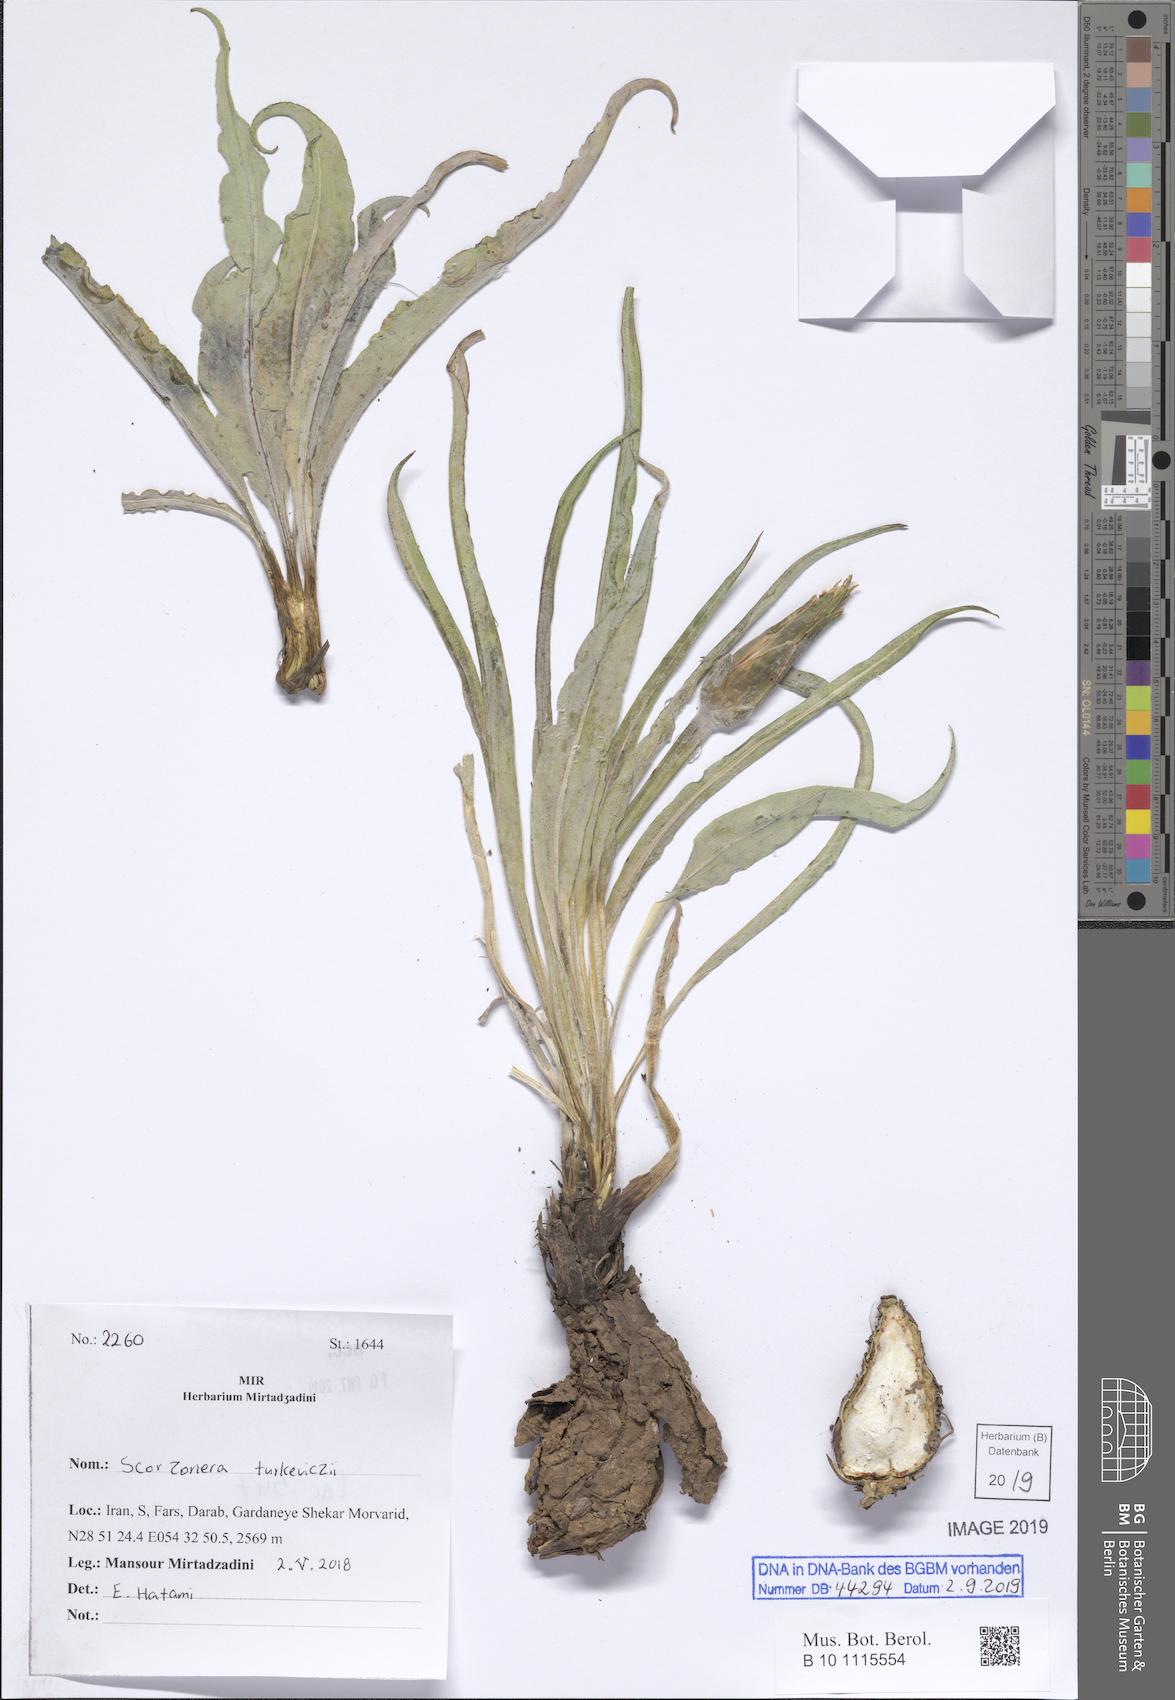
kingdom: Plantae
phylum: Tracheophyta
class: Magnoliopsida
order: Asterales
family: Asteraceae
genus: Candollea
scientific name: Candollea mucida
